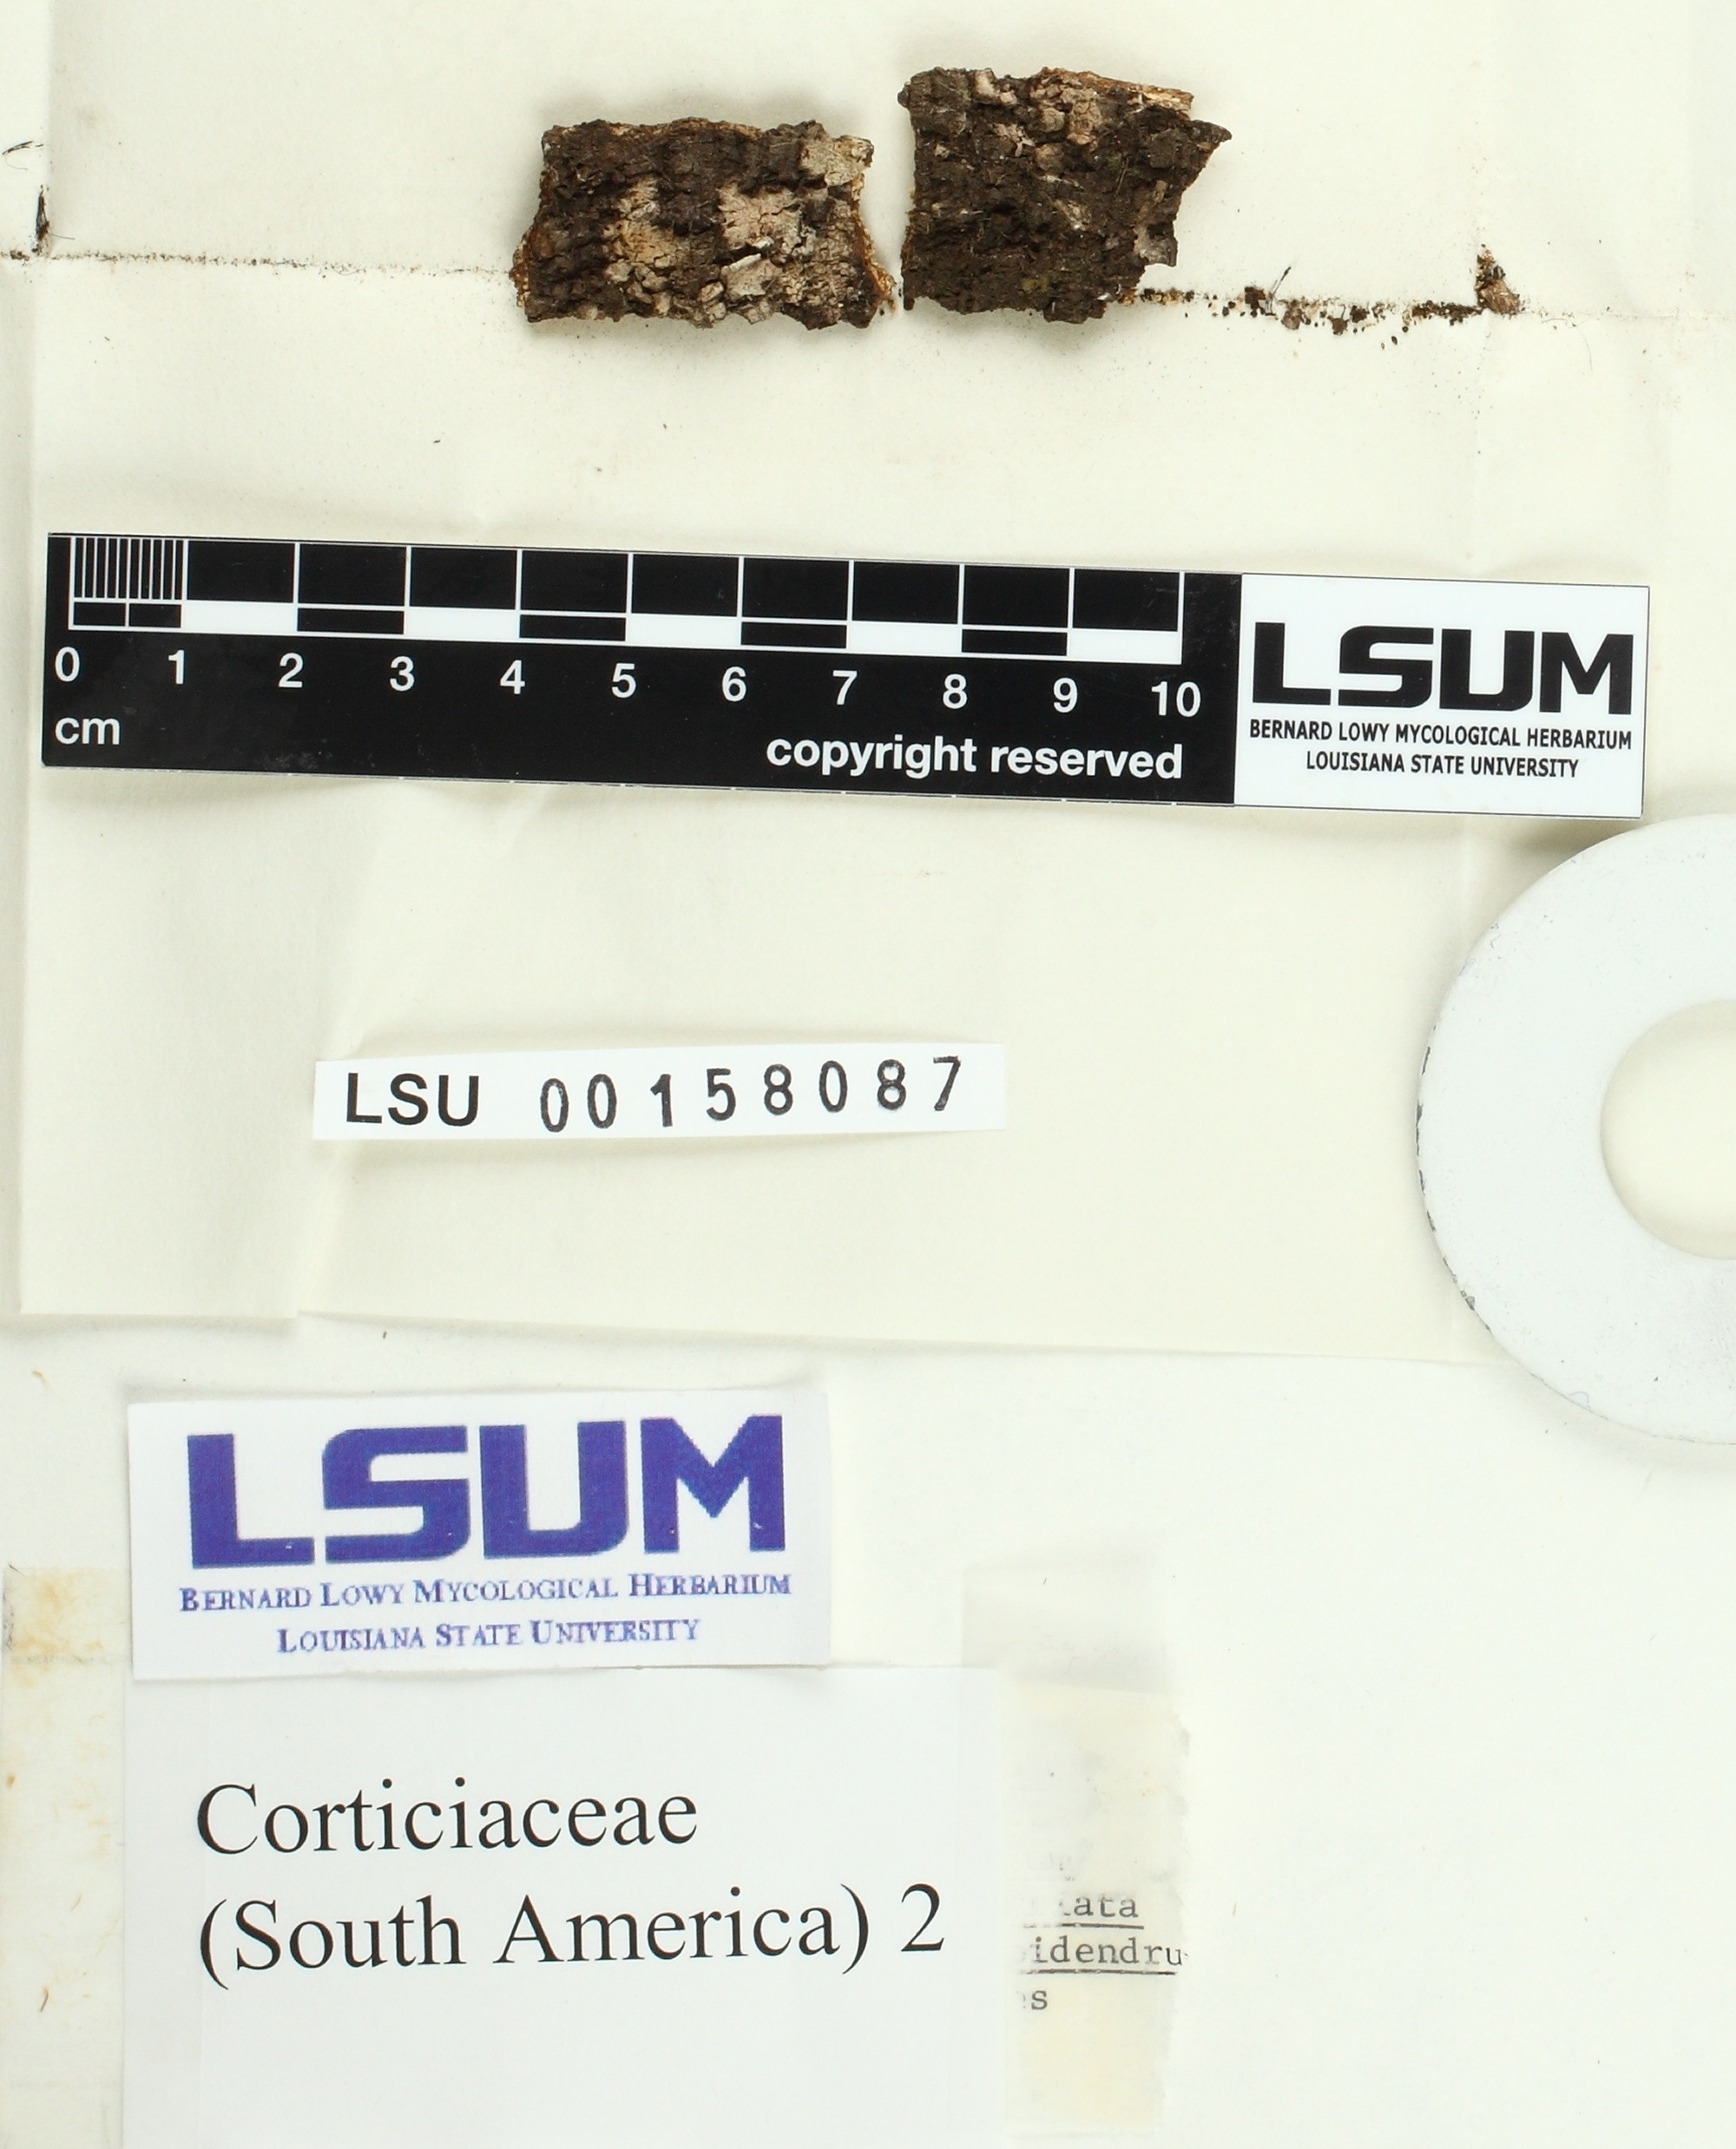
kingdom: Fungi
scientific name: Fungi
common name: Fungi
